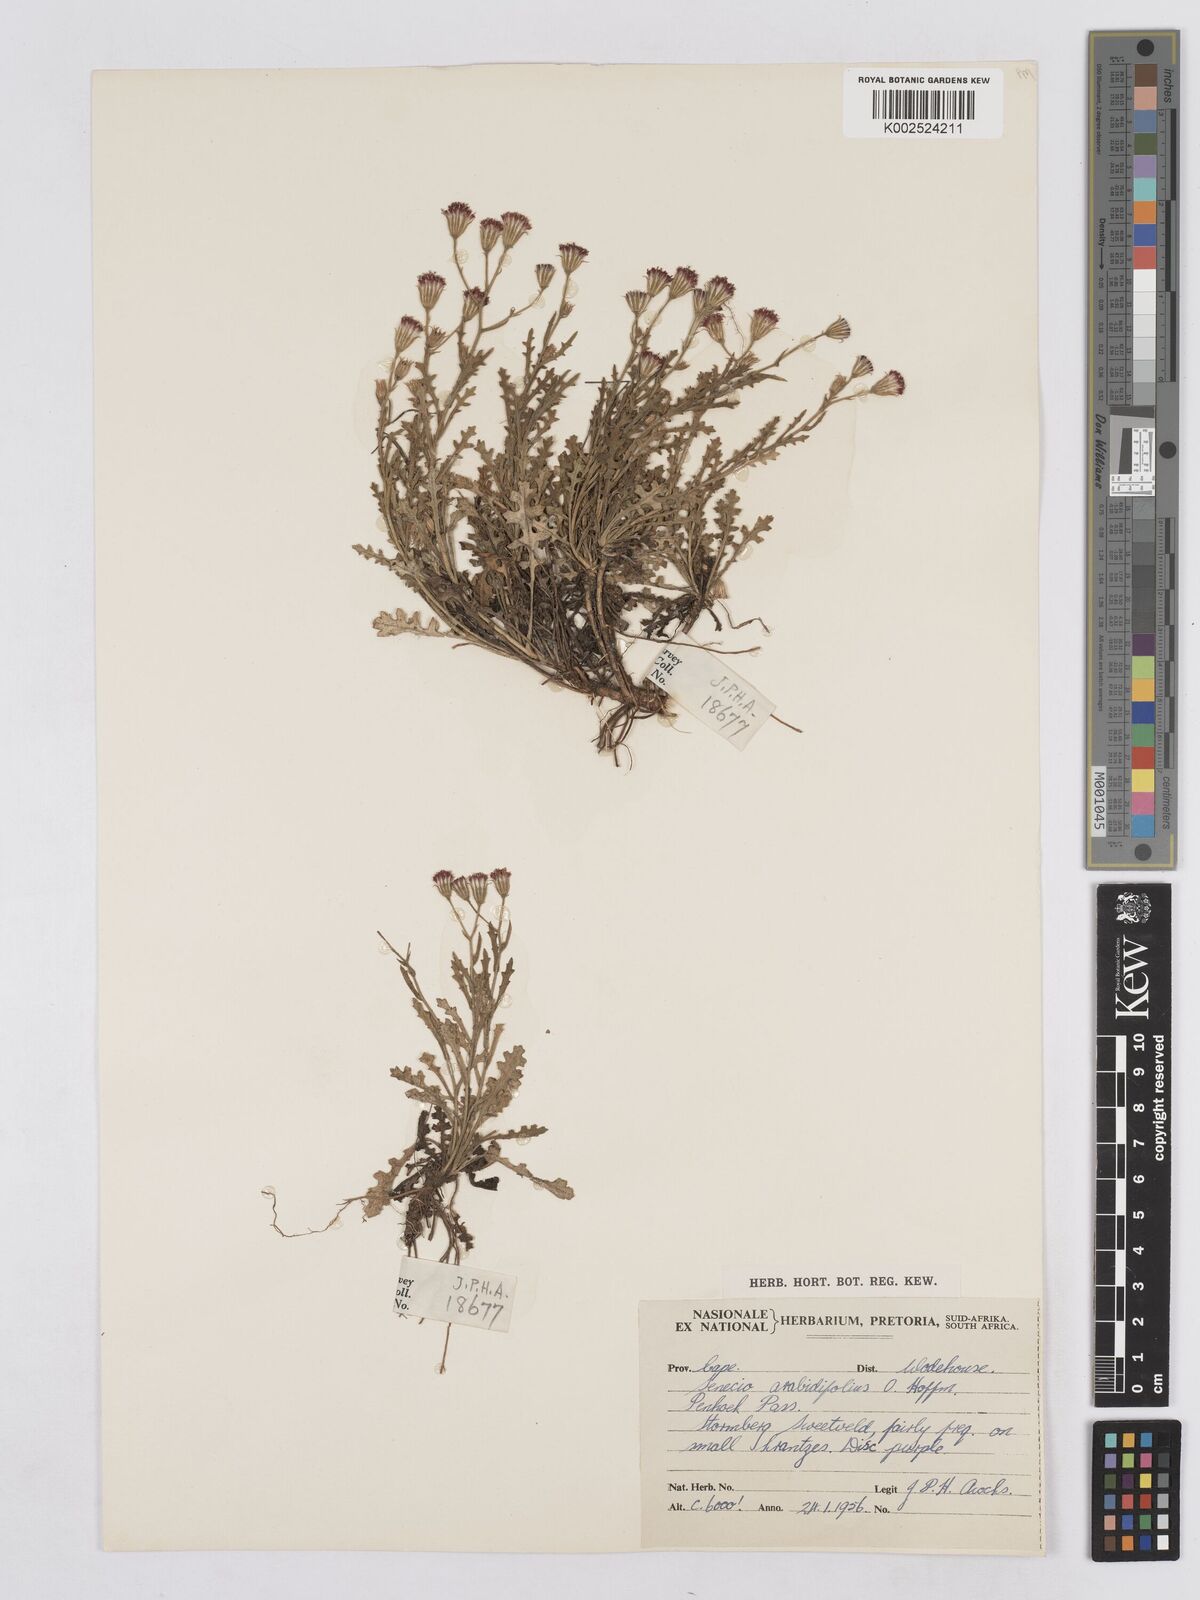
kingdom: Plantae
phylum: Tracheophyta
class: Magnoliopsida
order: Asterales
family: Asteraceae
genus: Senecio
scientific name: Senecio arabidifolius
